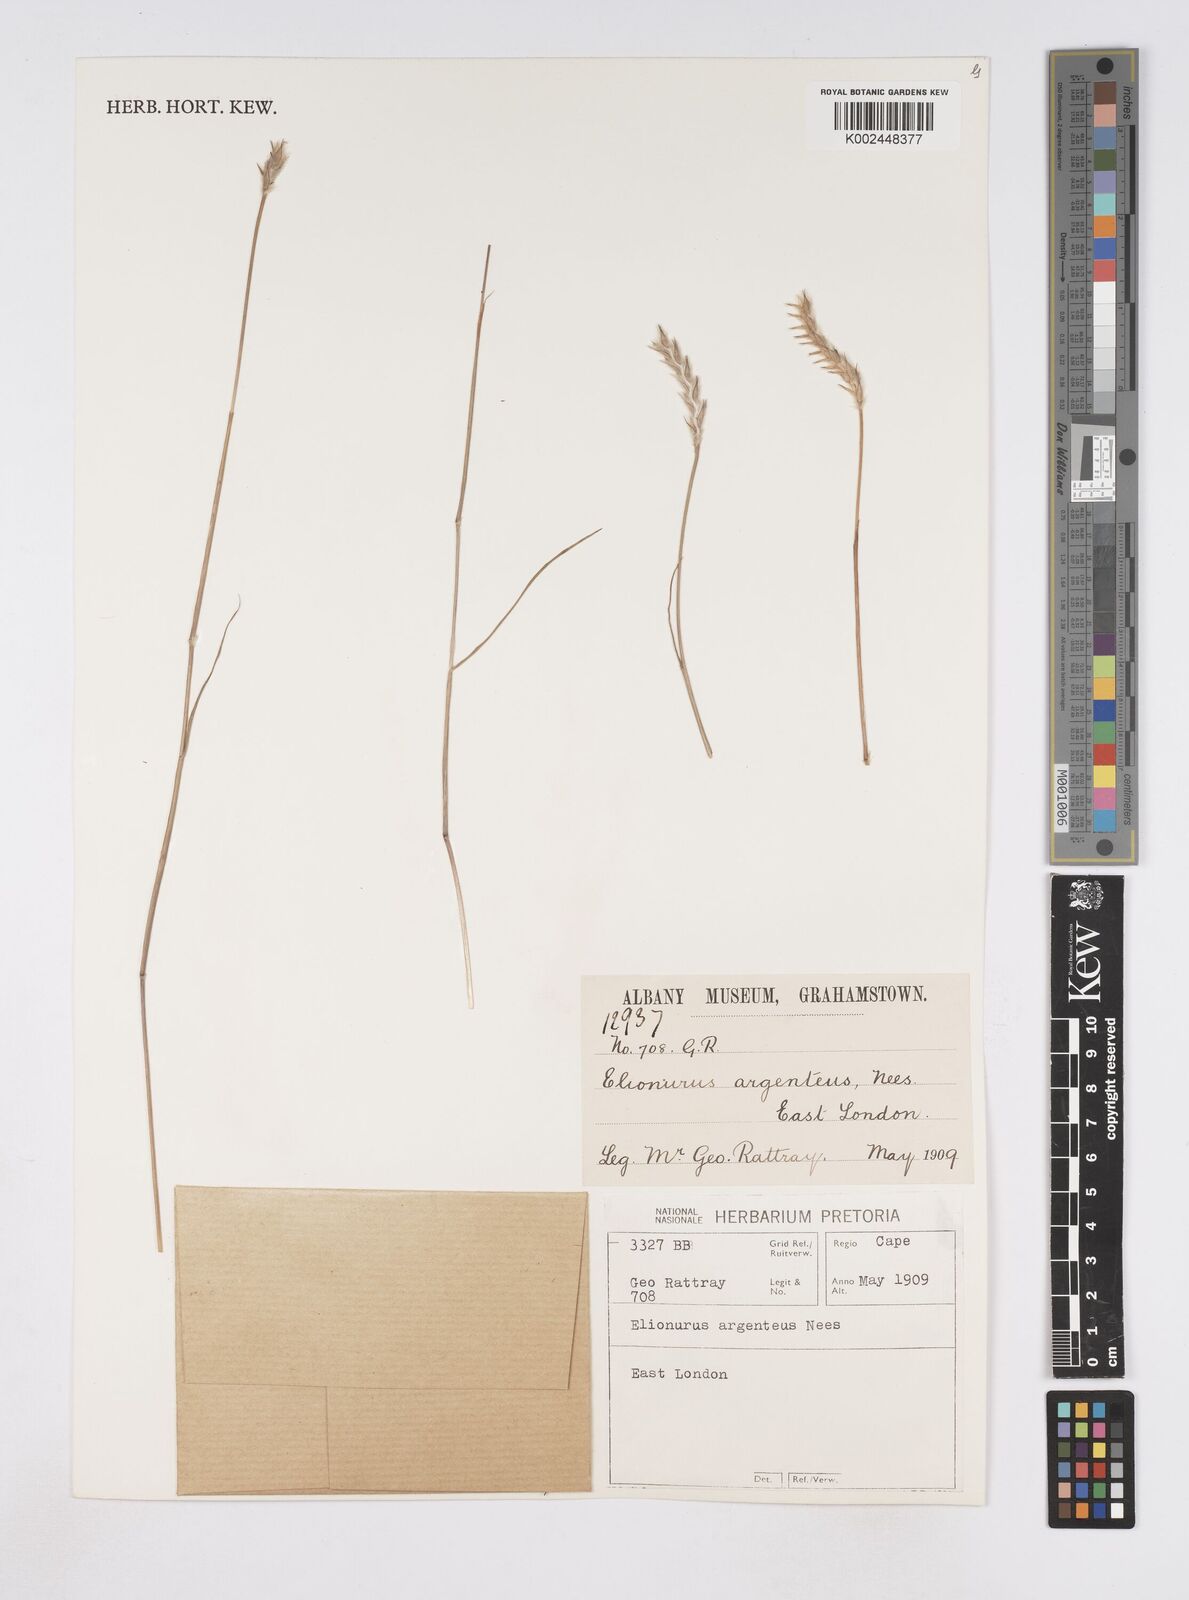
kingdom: Plantae
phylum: Tracheophyta
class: Liliopsida
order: Poales
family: Poaceae
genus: Elionurus
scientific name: Elionurus muticus
